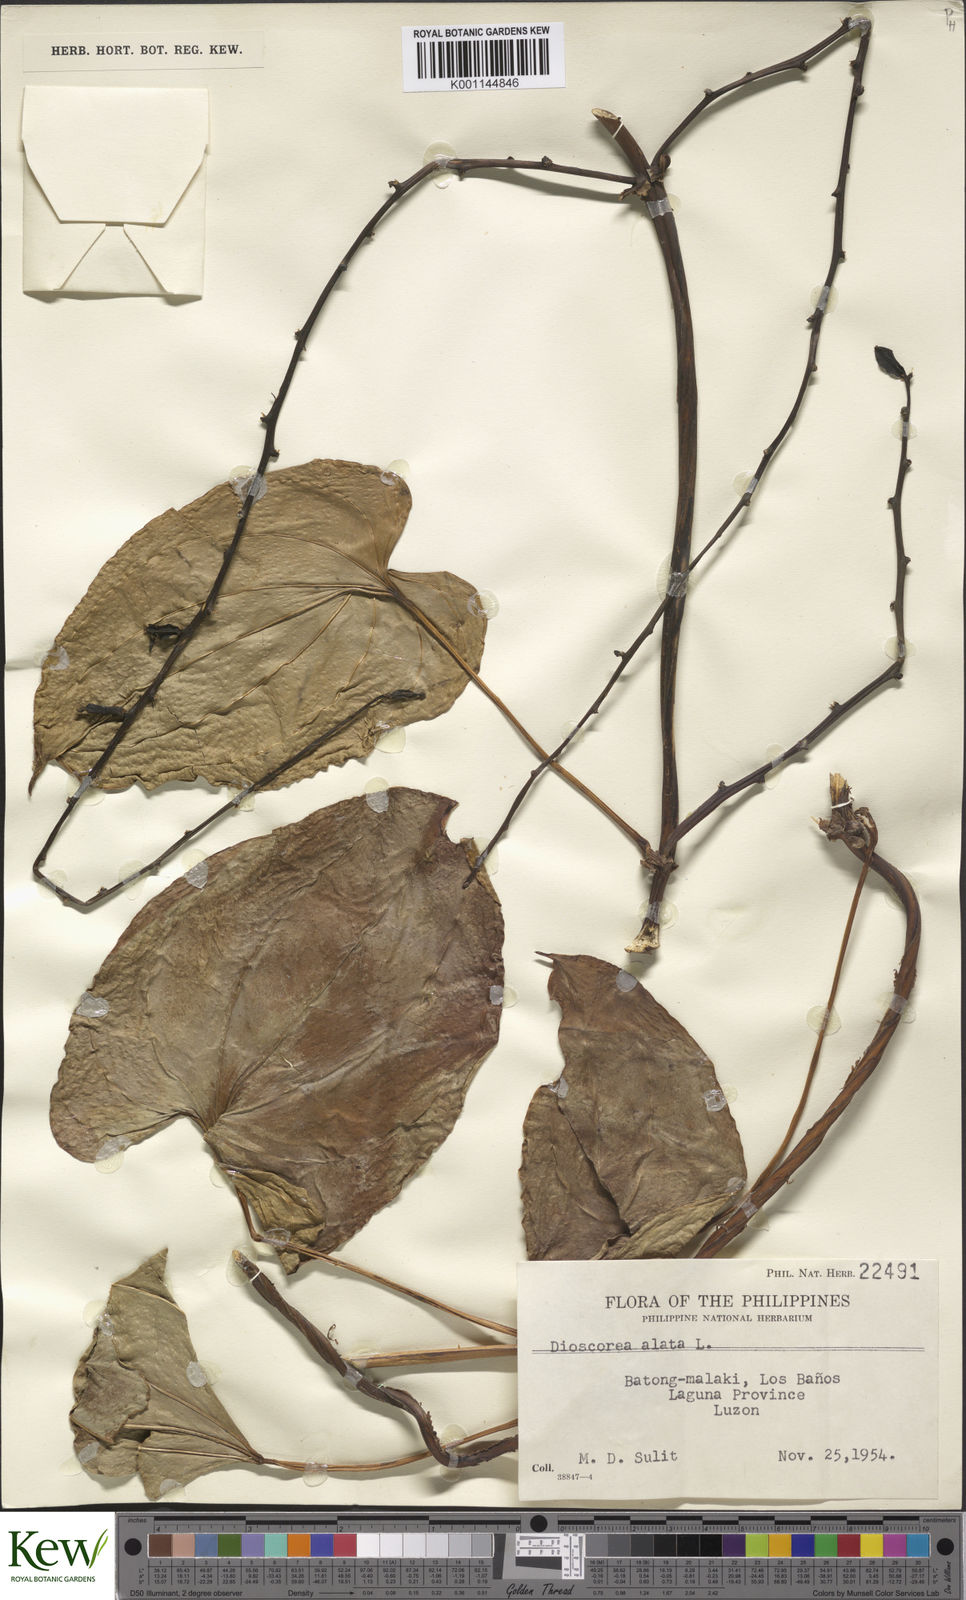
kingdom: Plantae
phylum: Tracheophyta
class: Liliopsida
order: Dioscoreales
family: Dioscoreaceae
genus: Dioscorea
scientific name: Dioscorea alata
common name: Water yam
